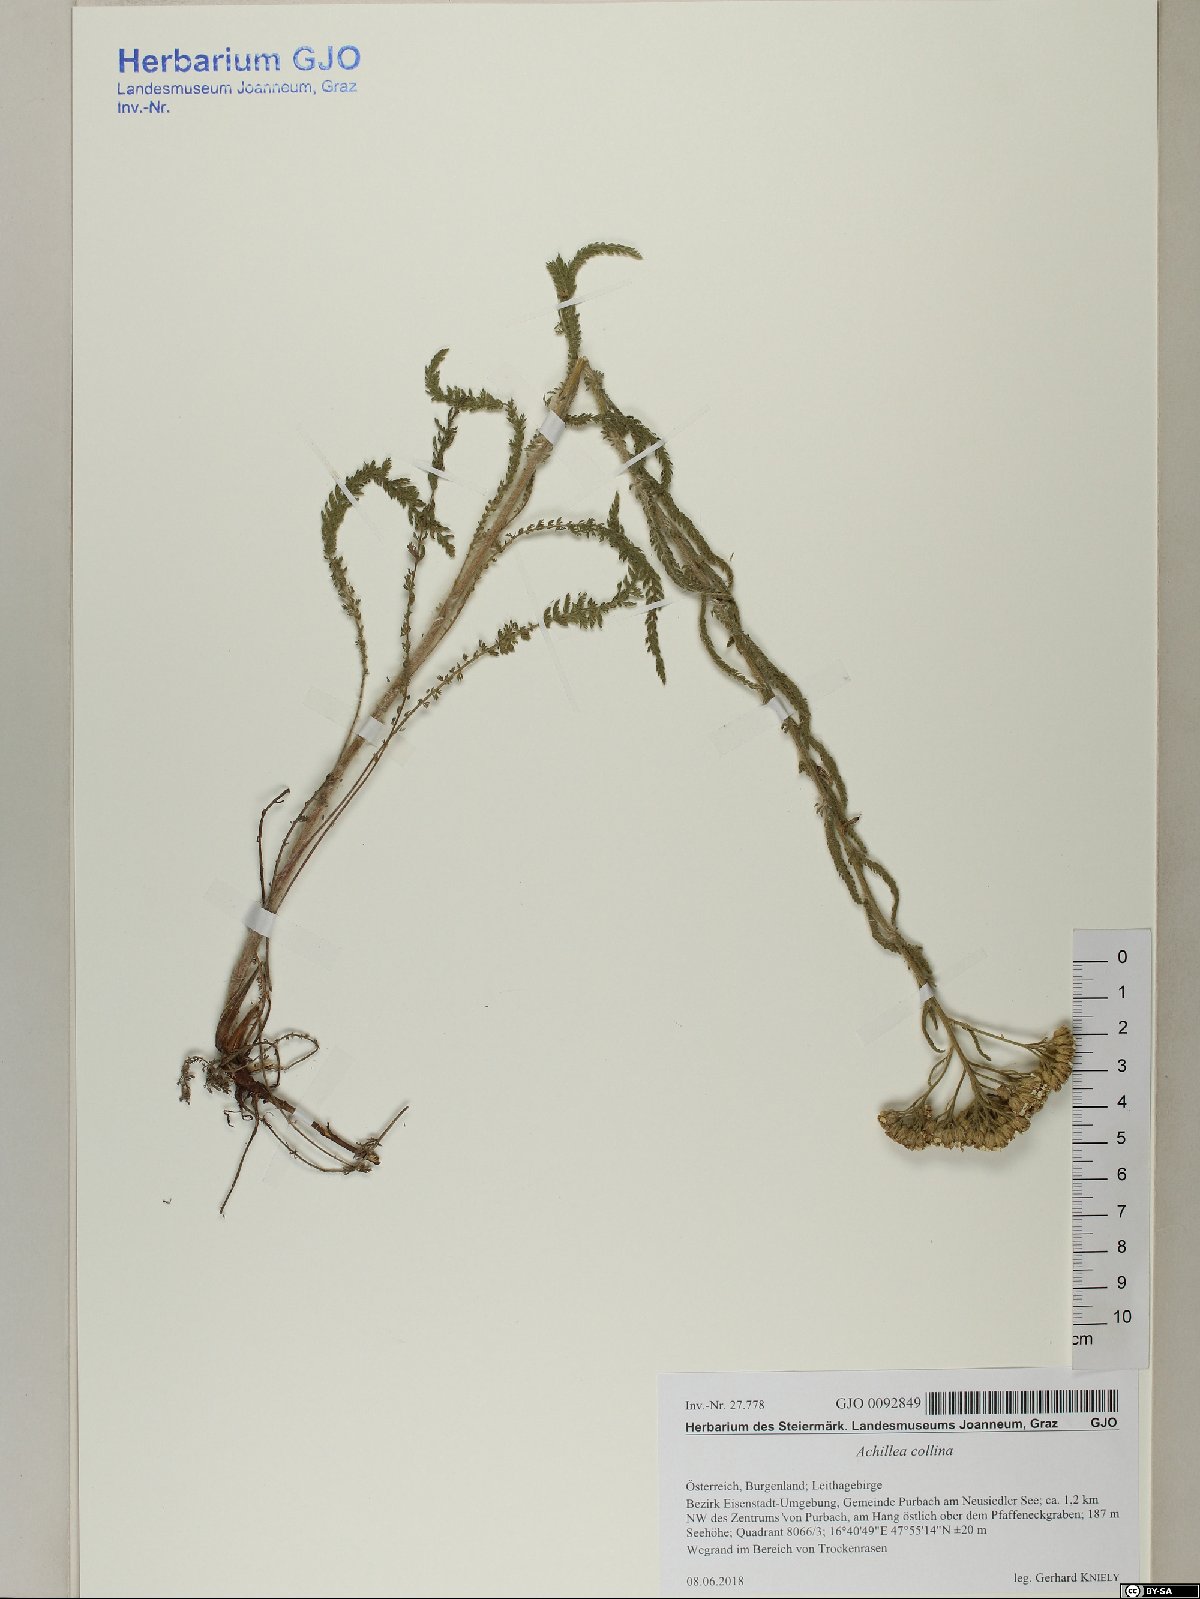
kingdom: Plantae
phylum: Tracheophyta
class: Magnoliopsida
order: Asterales
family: Asteraceae
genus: Achillea
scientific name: Achillea collina
